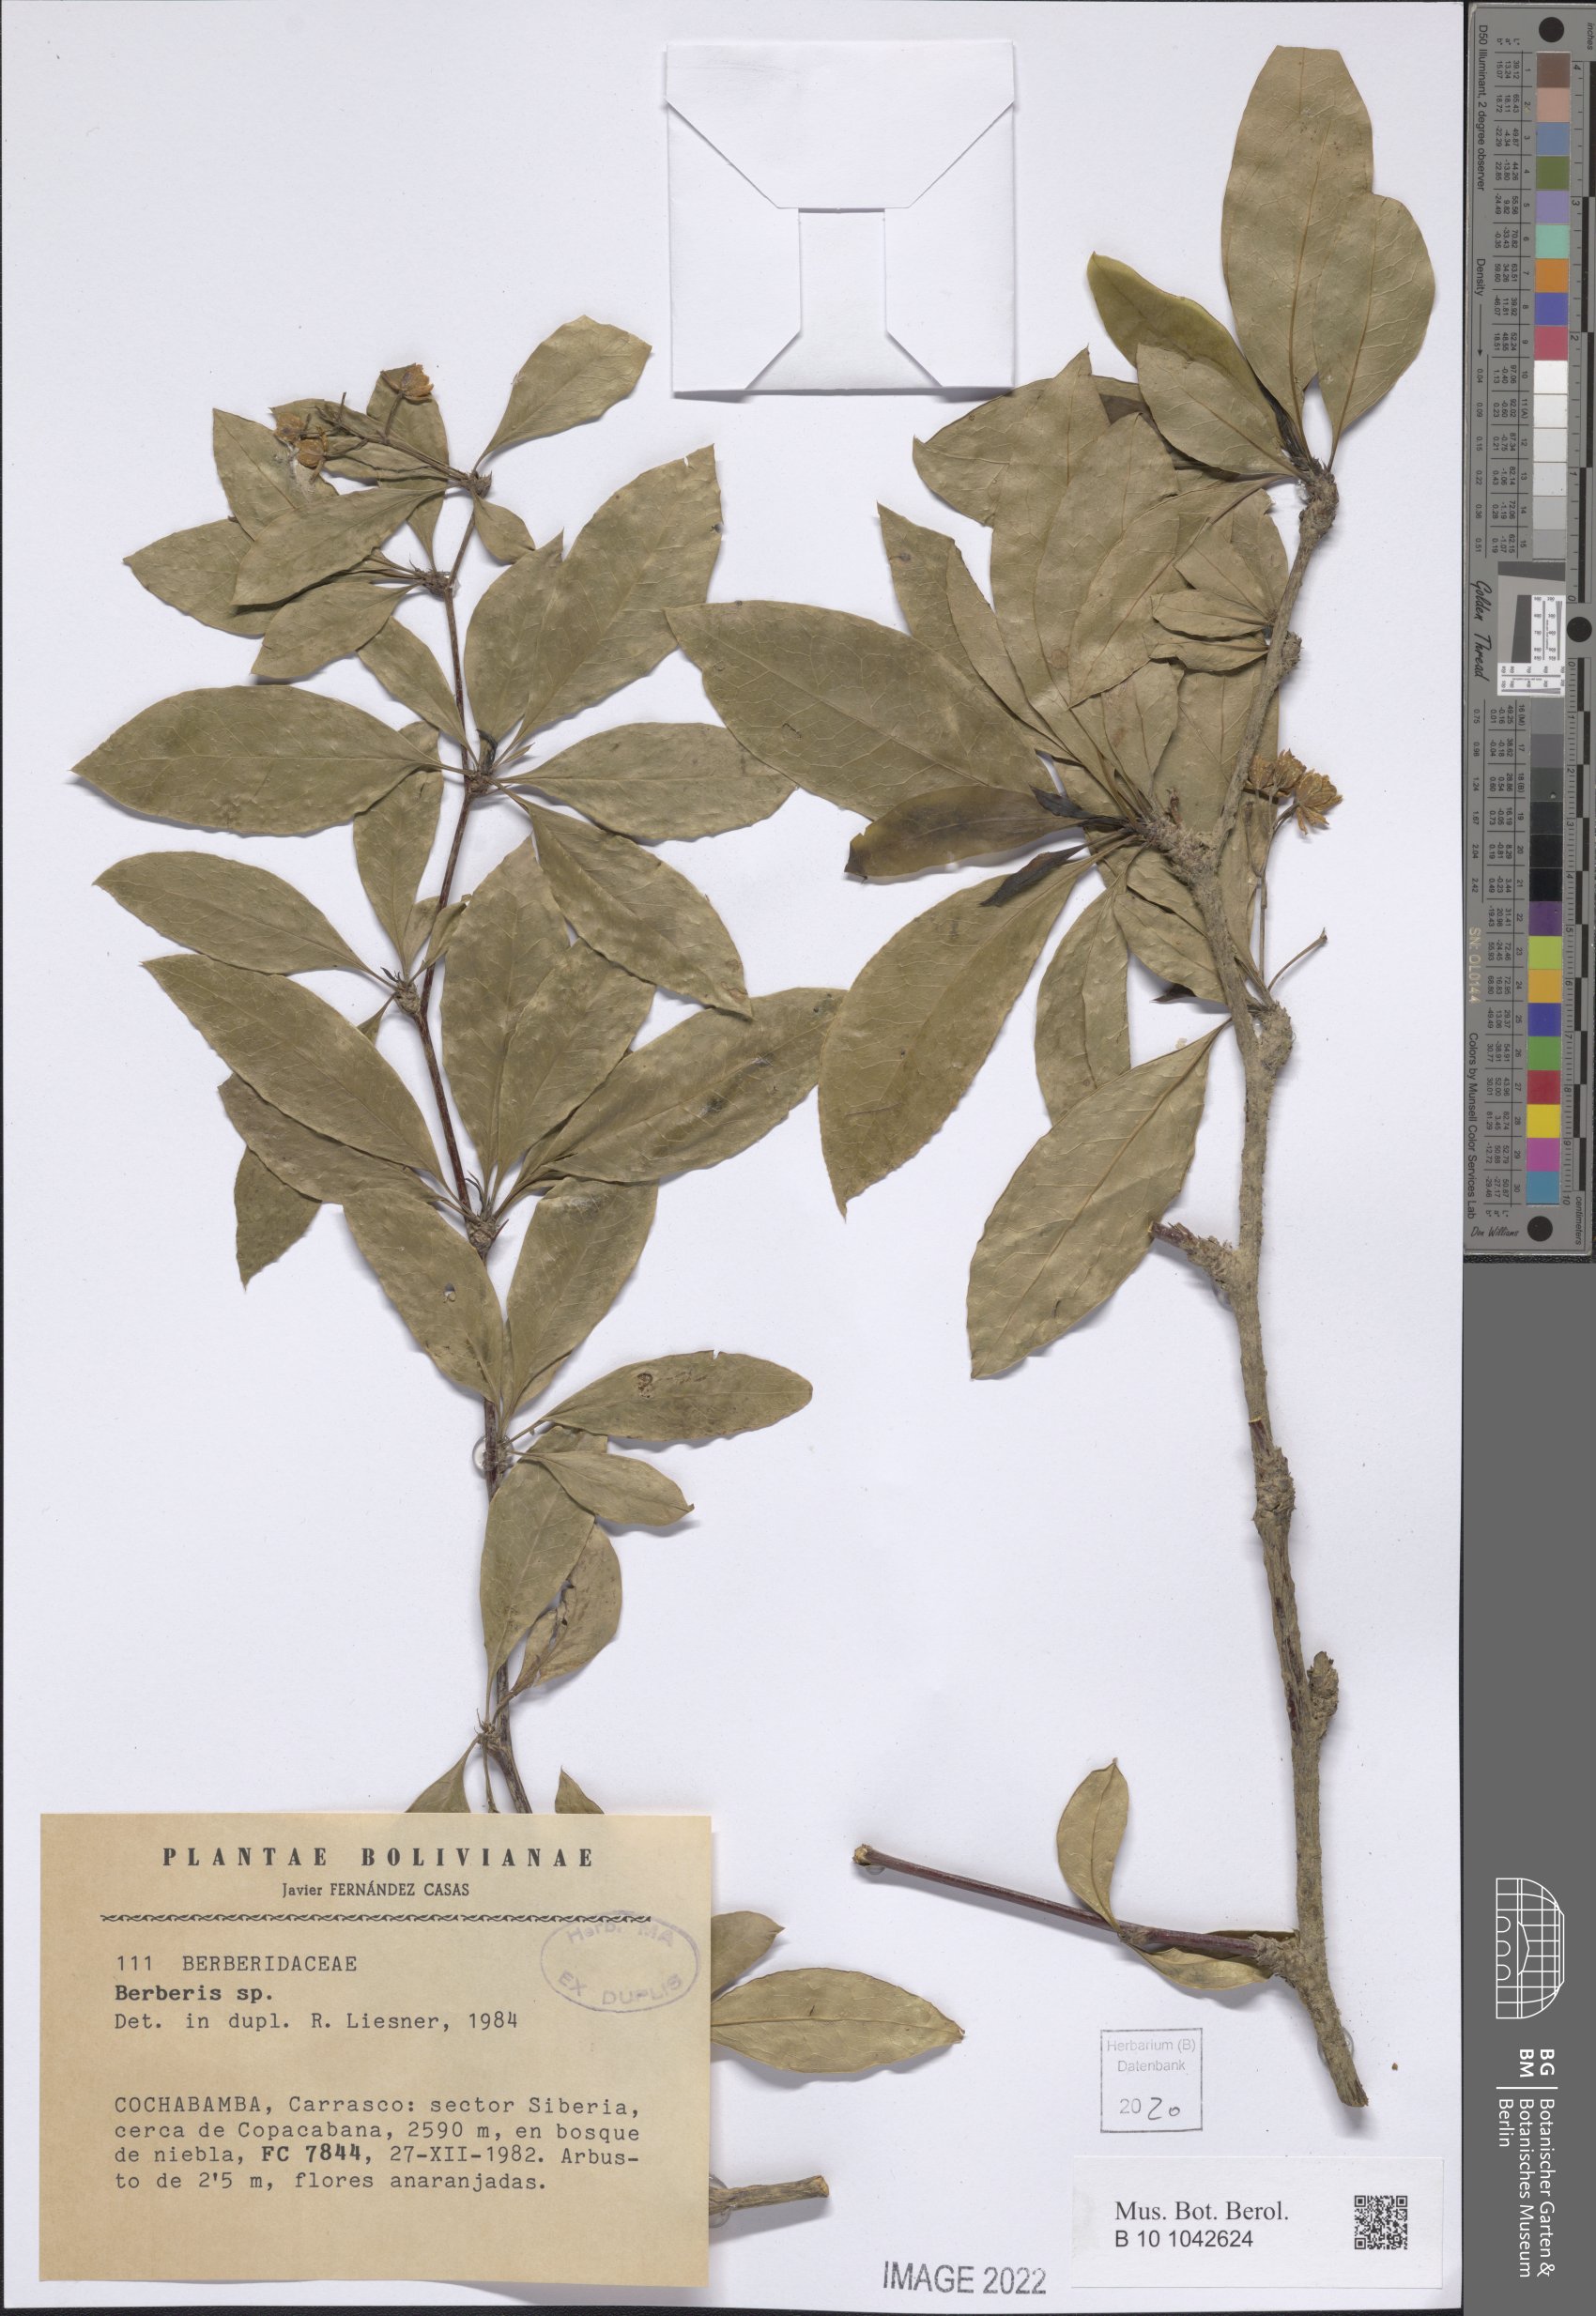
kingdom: Plantae
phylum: Tracheophyta
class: Magnoliopsida
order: Ranunculales
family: Berberidaceae
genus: Berberis
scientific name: Berberis
